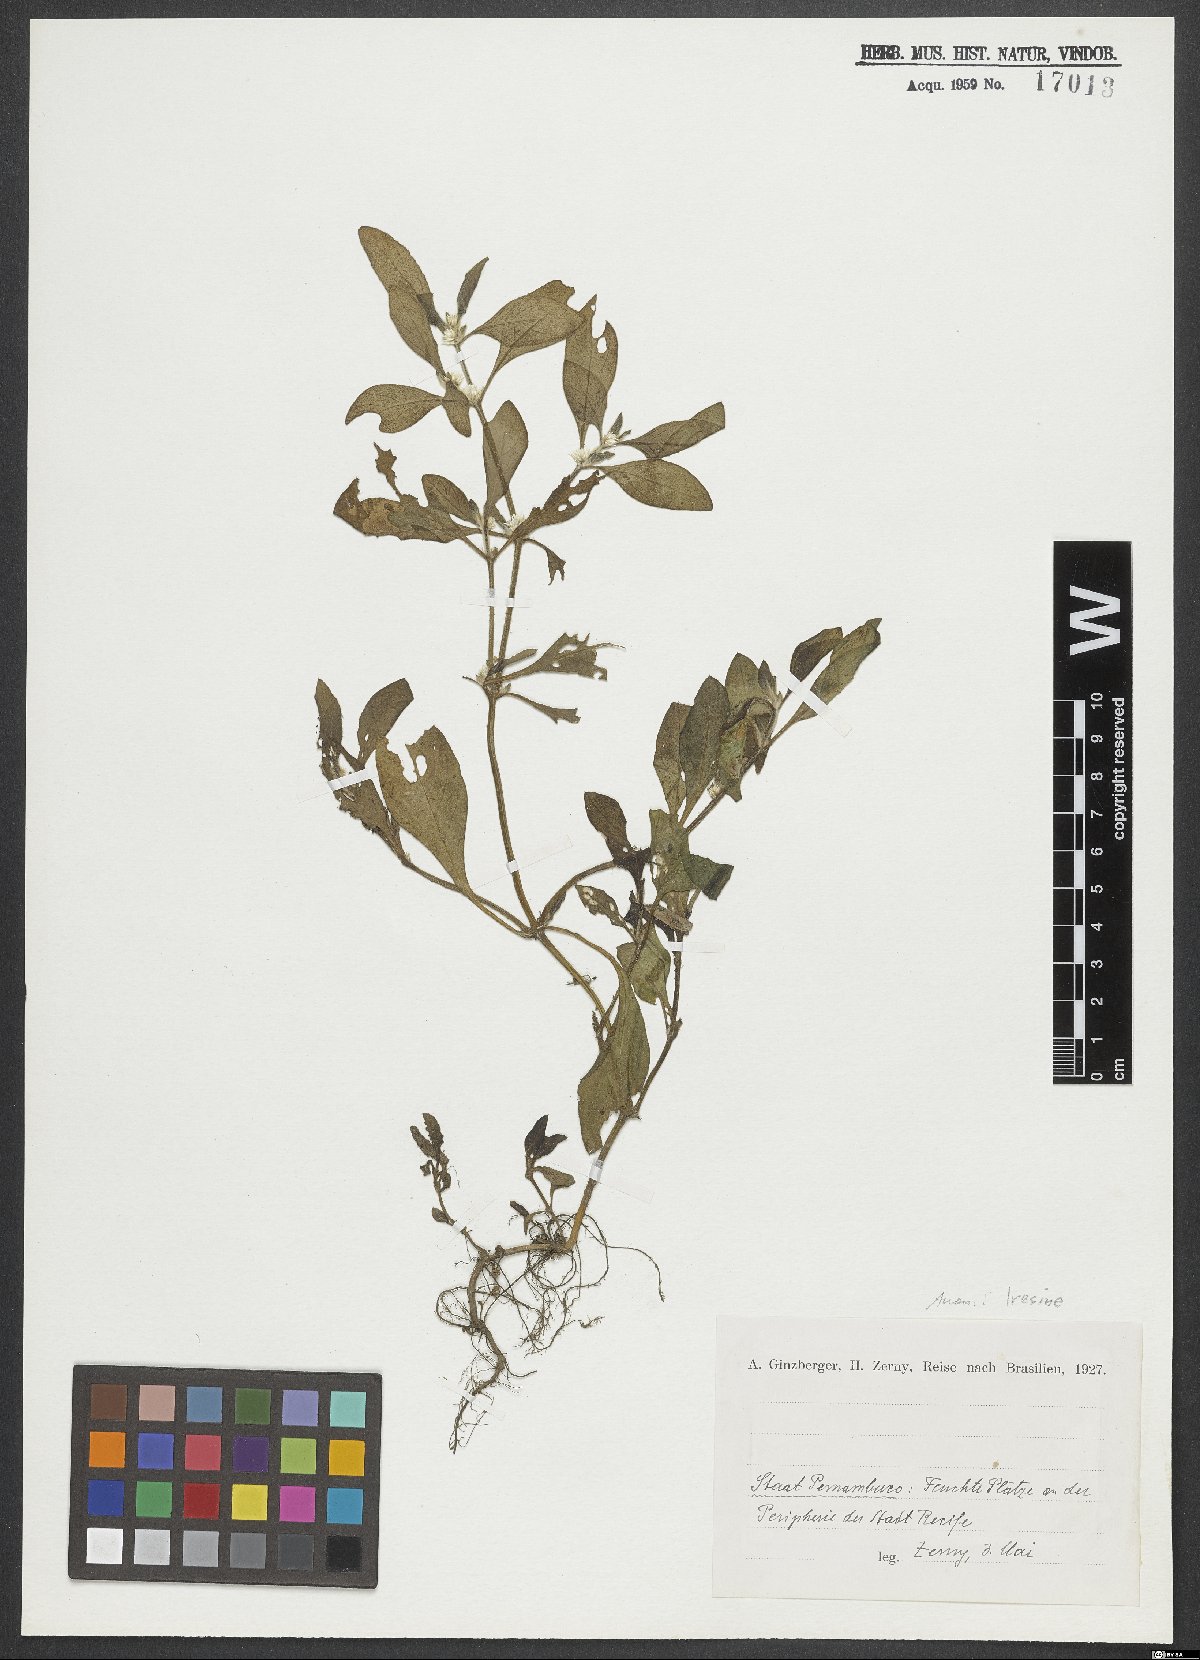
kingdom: Plantae
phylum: Tracheophyta
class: Magnoliopsida
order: Caryophyllales
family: Amaranthaceae
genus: Iresine
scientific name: Iresine
